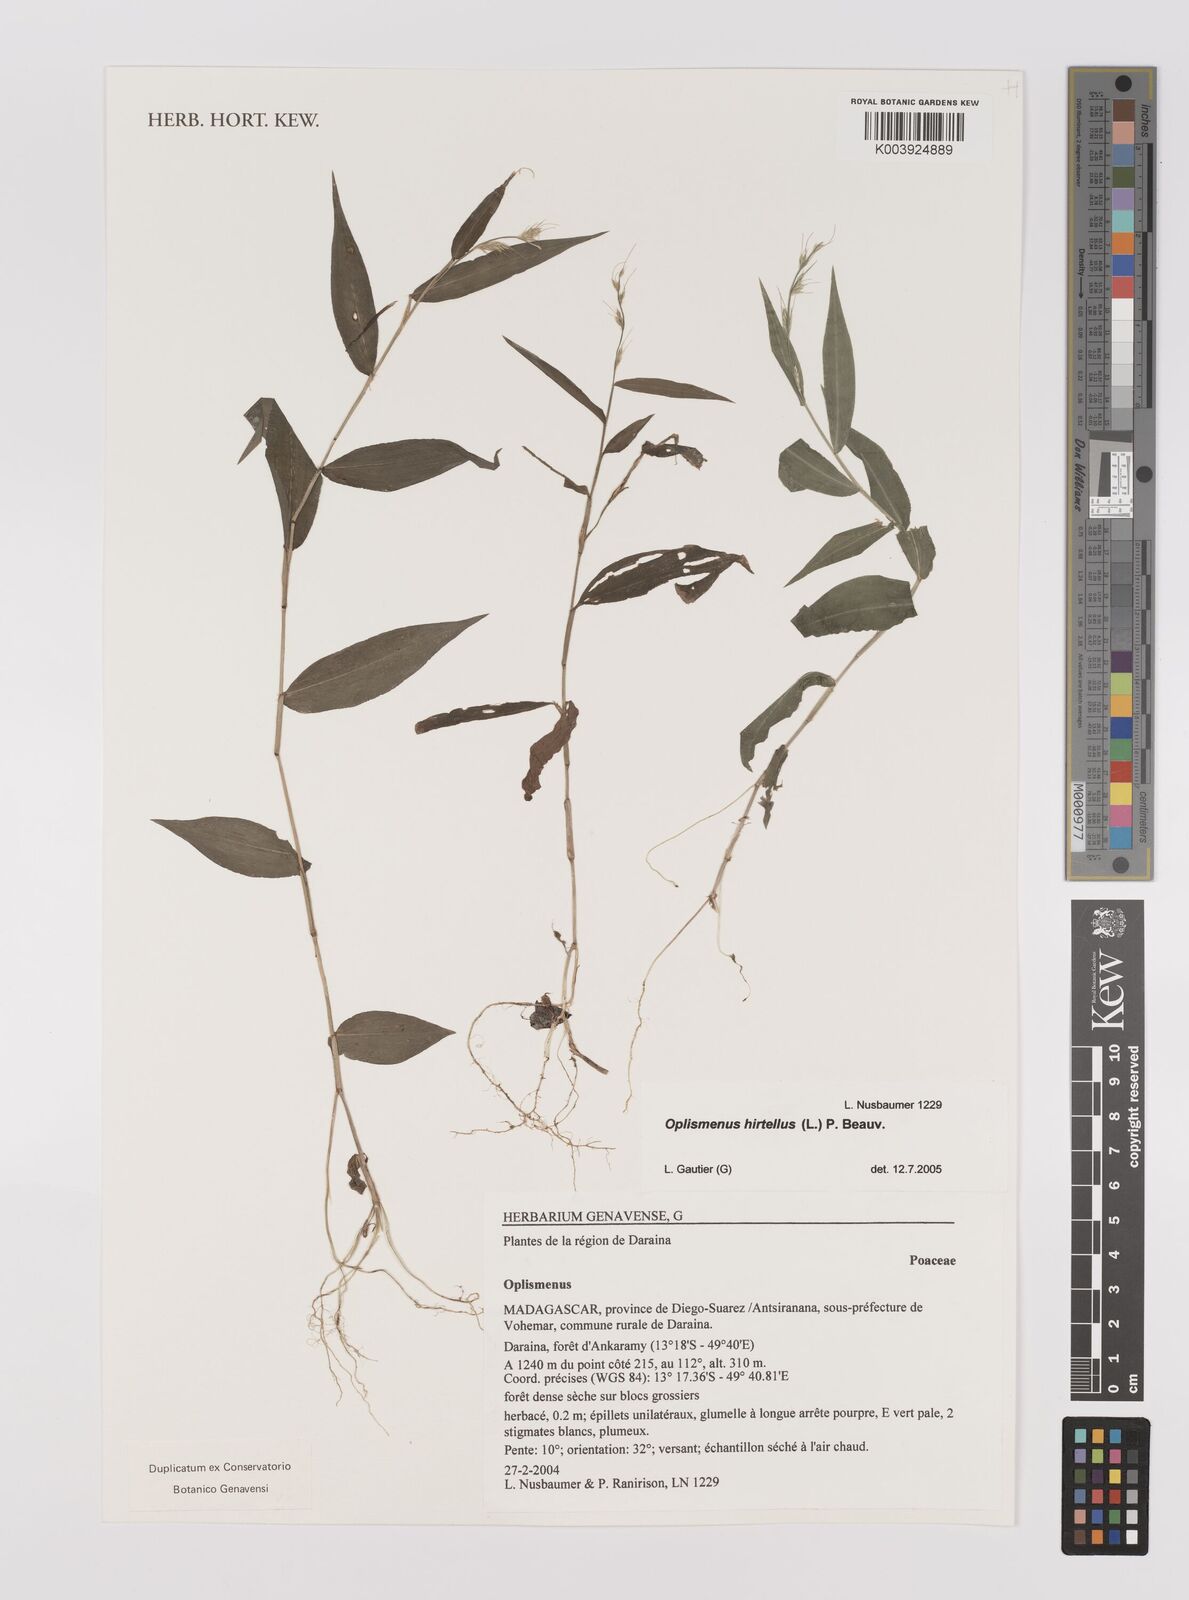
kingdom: Plantae
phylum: Tracheophyta
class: Liliopsida
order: Poales
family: Poaceae
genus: Oplismenus
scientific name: Oplismenus hirtellus
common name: Basketgrass
